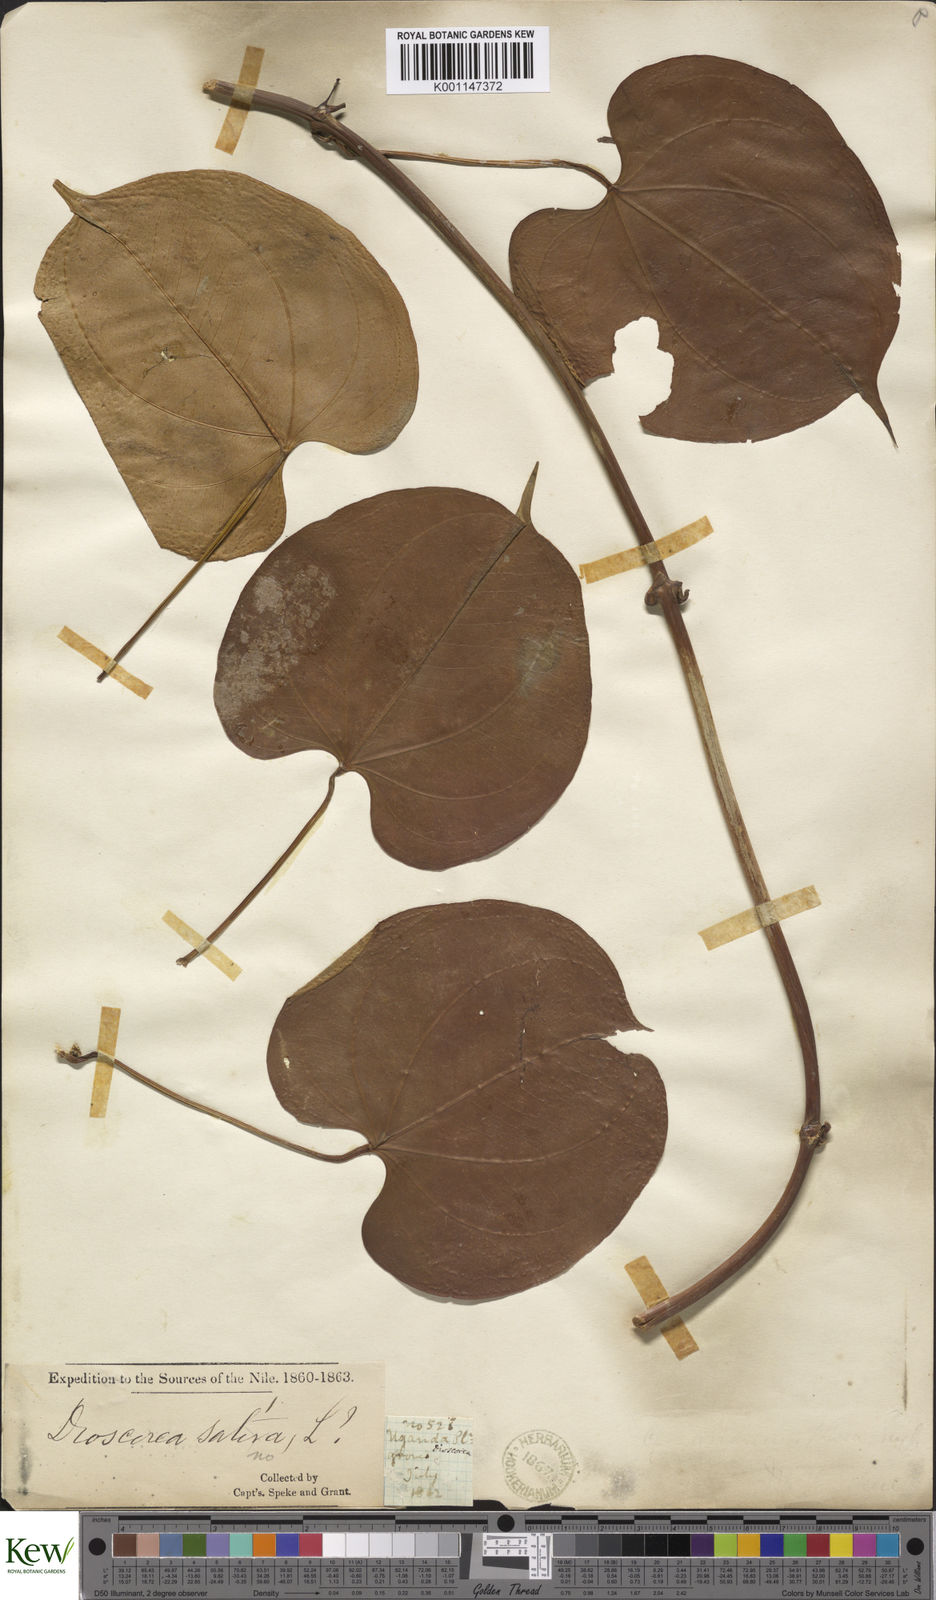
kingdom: Plantae
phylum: Tracheophyta
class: Liliopsida
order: Dioscoreales
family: Dioscoreaceae
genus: Dioscorea
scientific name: Dioscorea cayenensis
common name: Attoto yam
